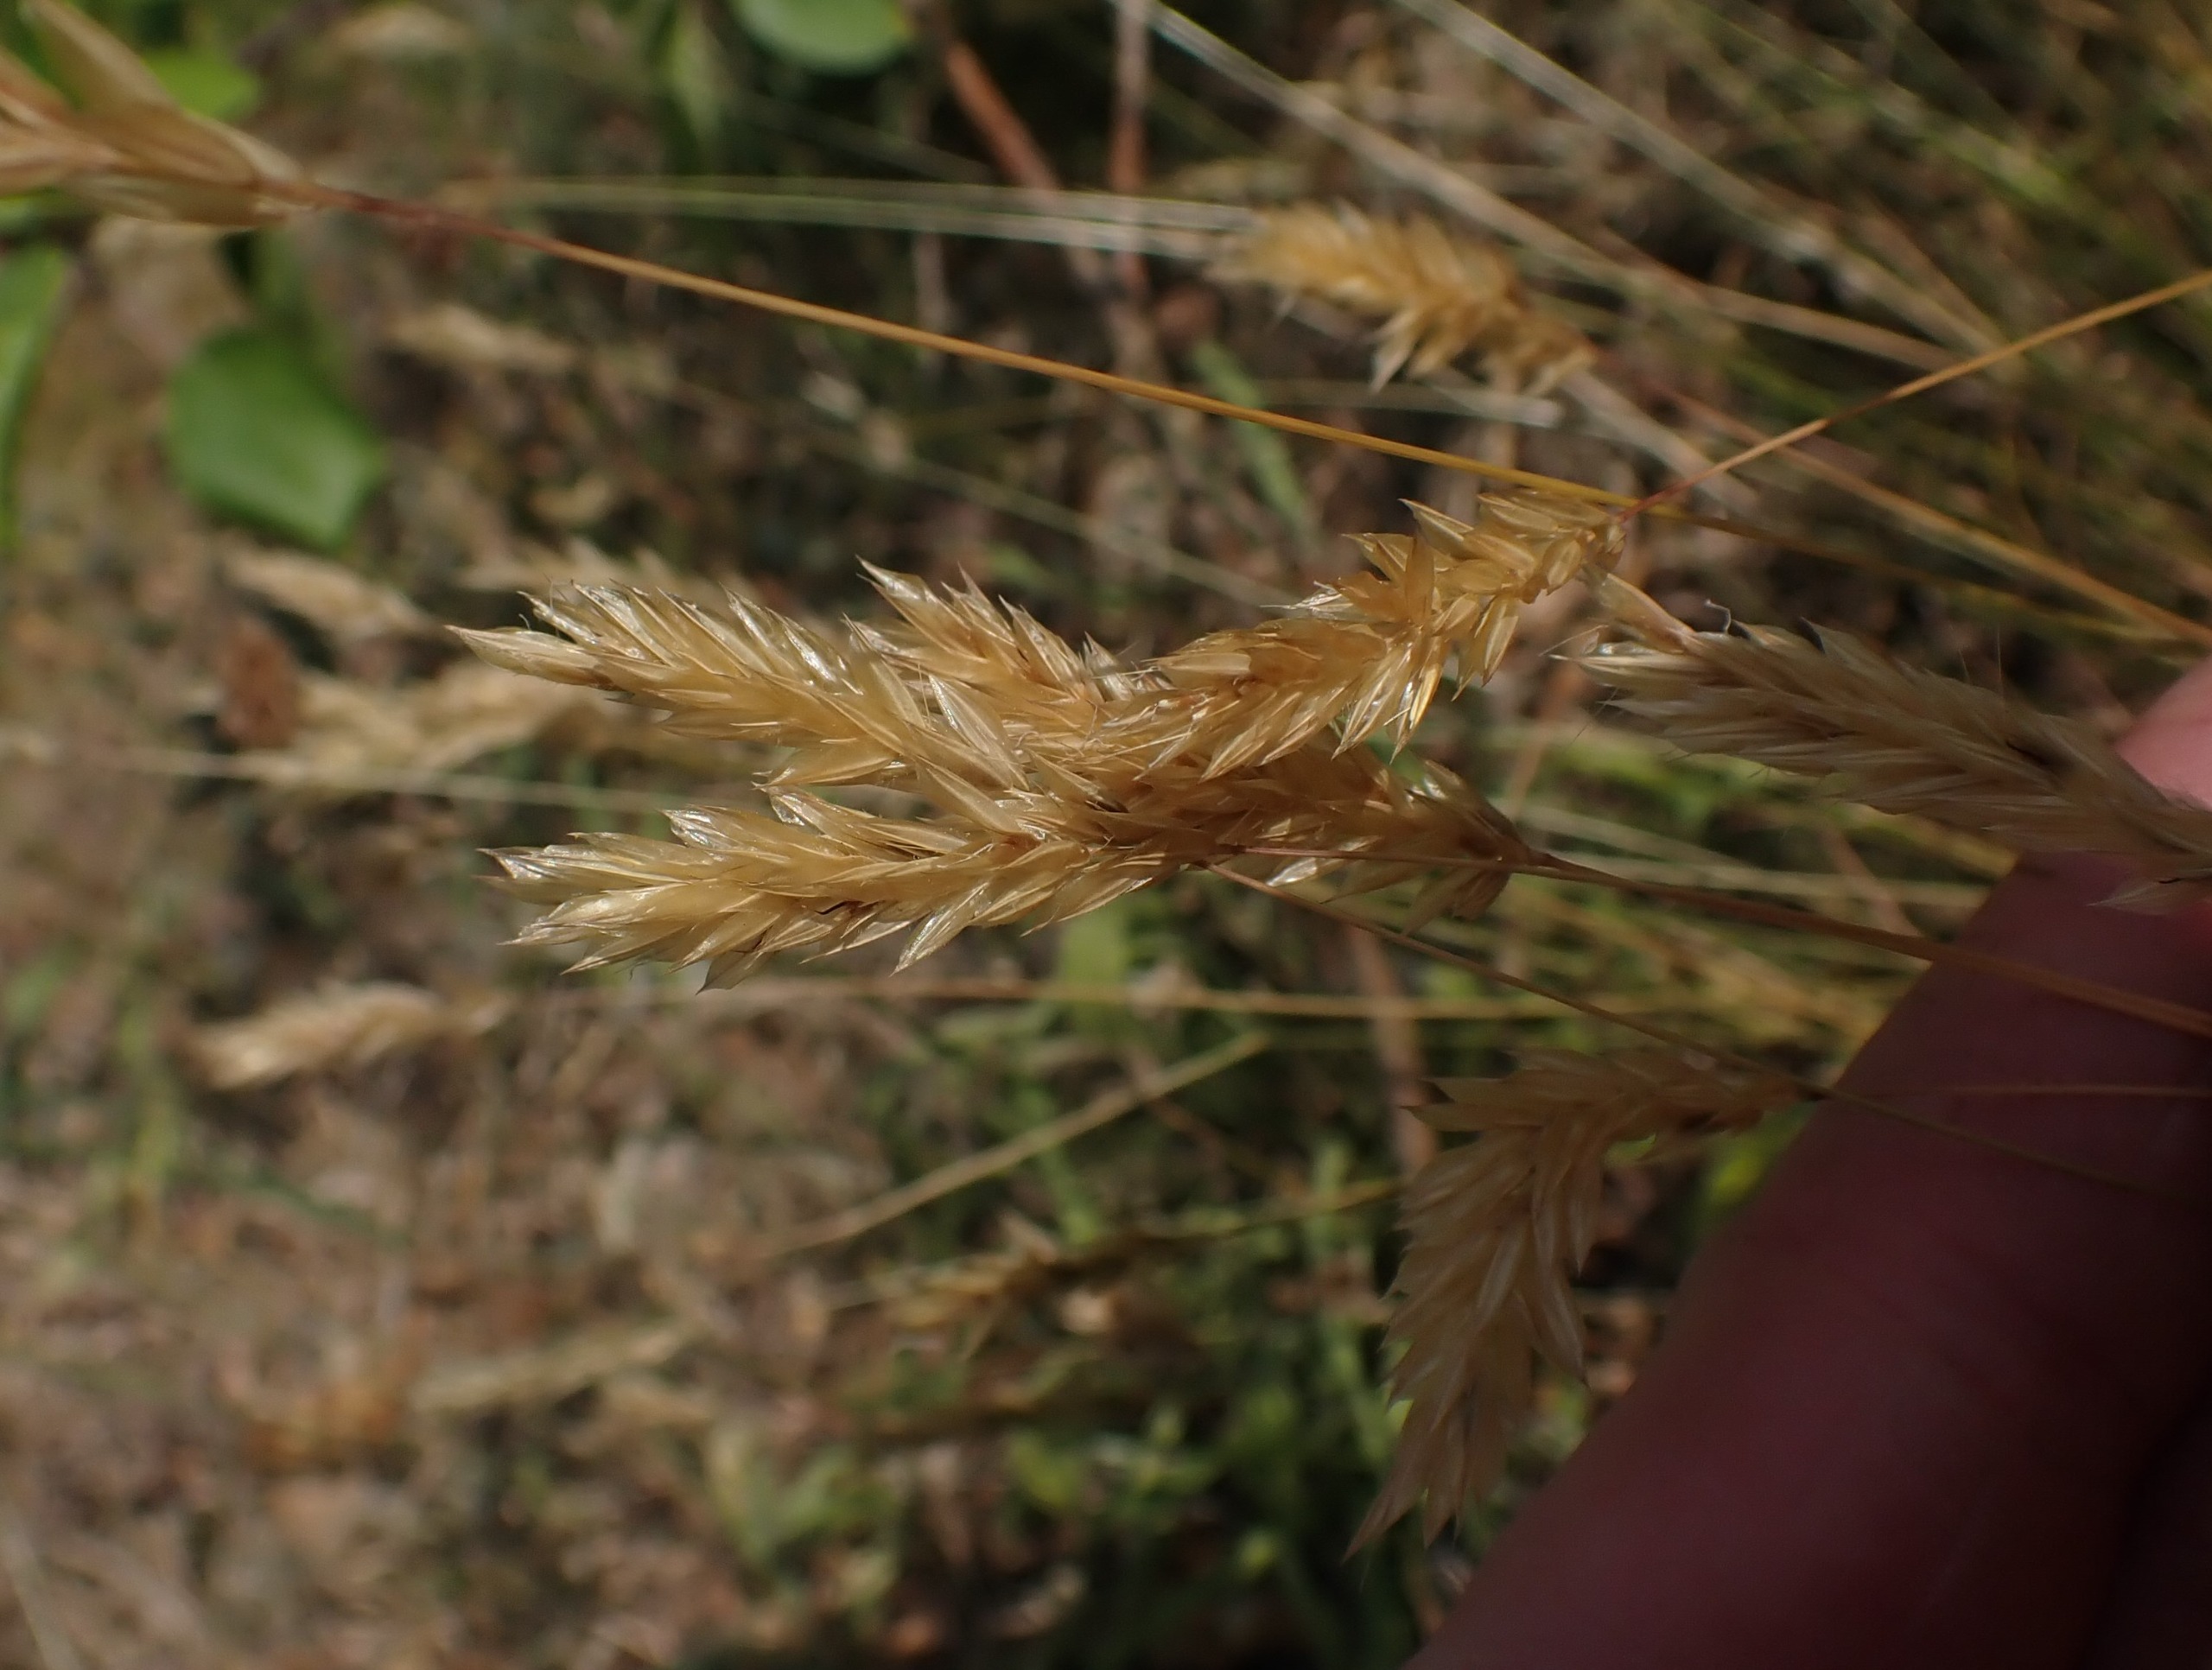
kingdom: Plantae
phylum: Tracheophyta
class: Liliopsida
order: Poales
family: Poaceae
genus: Anthoxanthum
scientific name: Anthoxanthum odoratum
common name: Vellugtende gulaks
